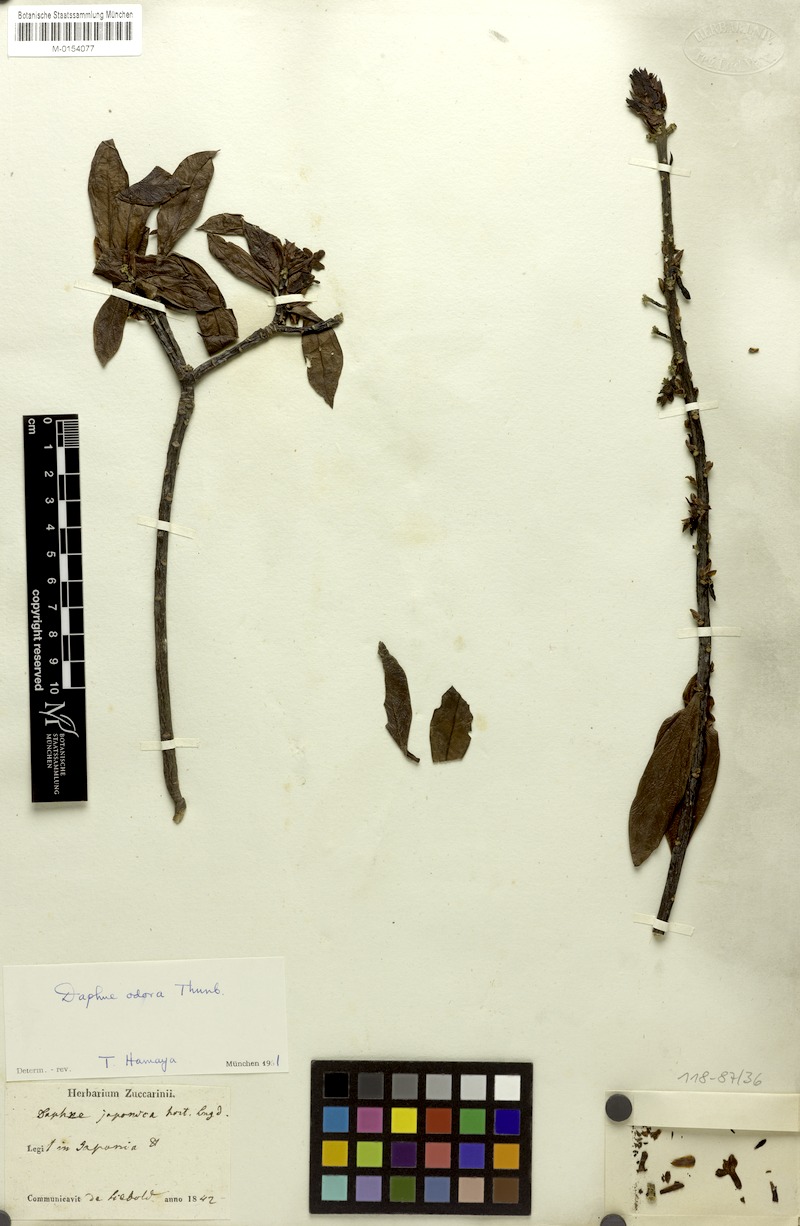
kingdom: Plantae
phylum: Tracheophyta
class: Magnoliopsida
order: Malvales
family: Thymelaeaceae
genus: Daphne
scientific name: Daphne odora
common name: Winter daphne
